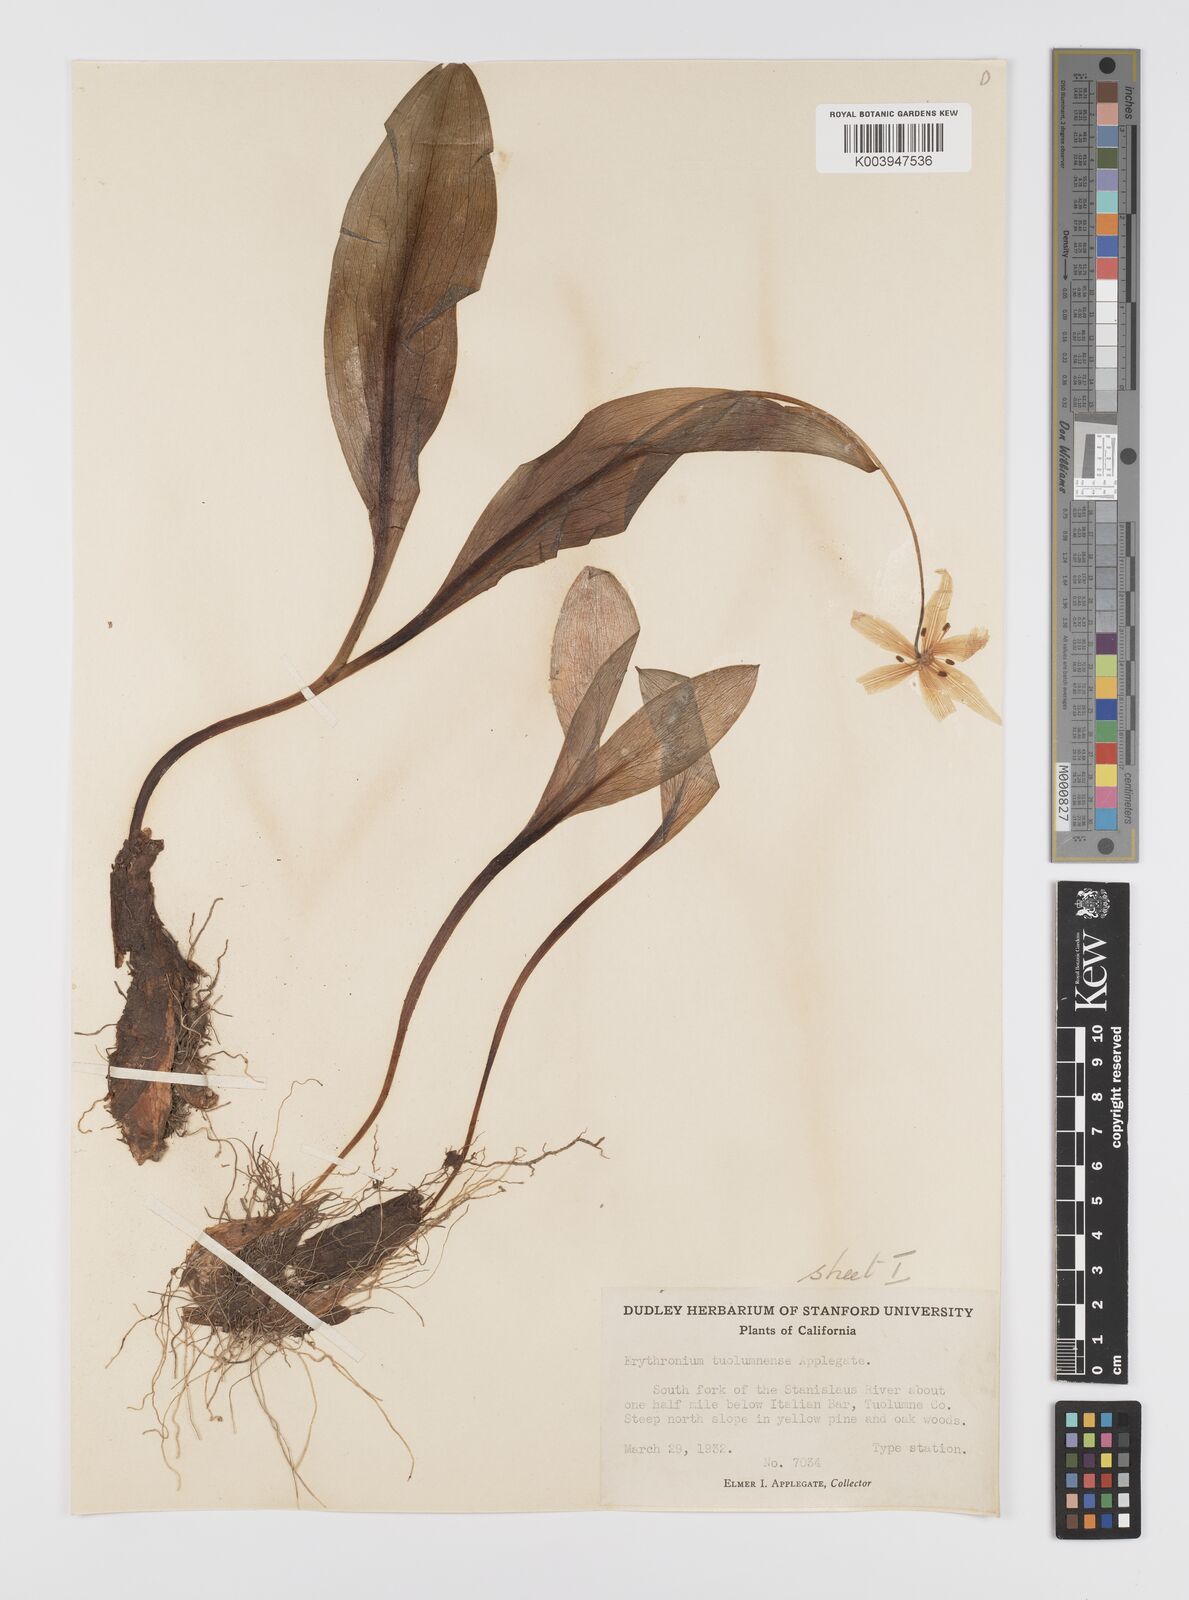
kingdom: Plantae
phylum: Tracheophyta
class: Liliopsida
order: Liliales
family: Liliaceae
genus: Erythronium
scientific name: Erythronium tuolumnense
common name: Tuolumne fawn-lily
